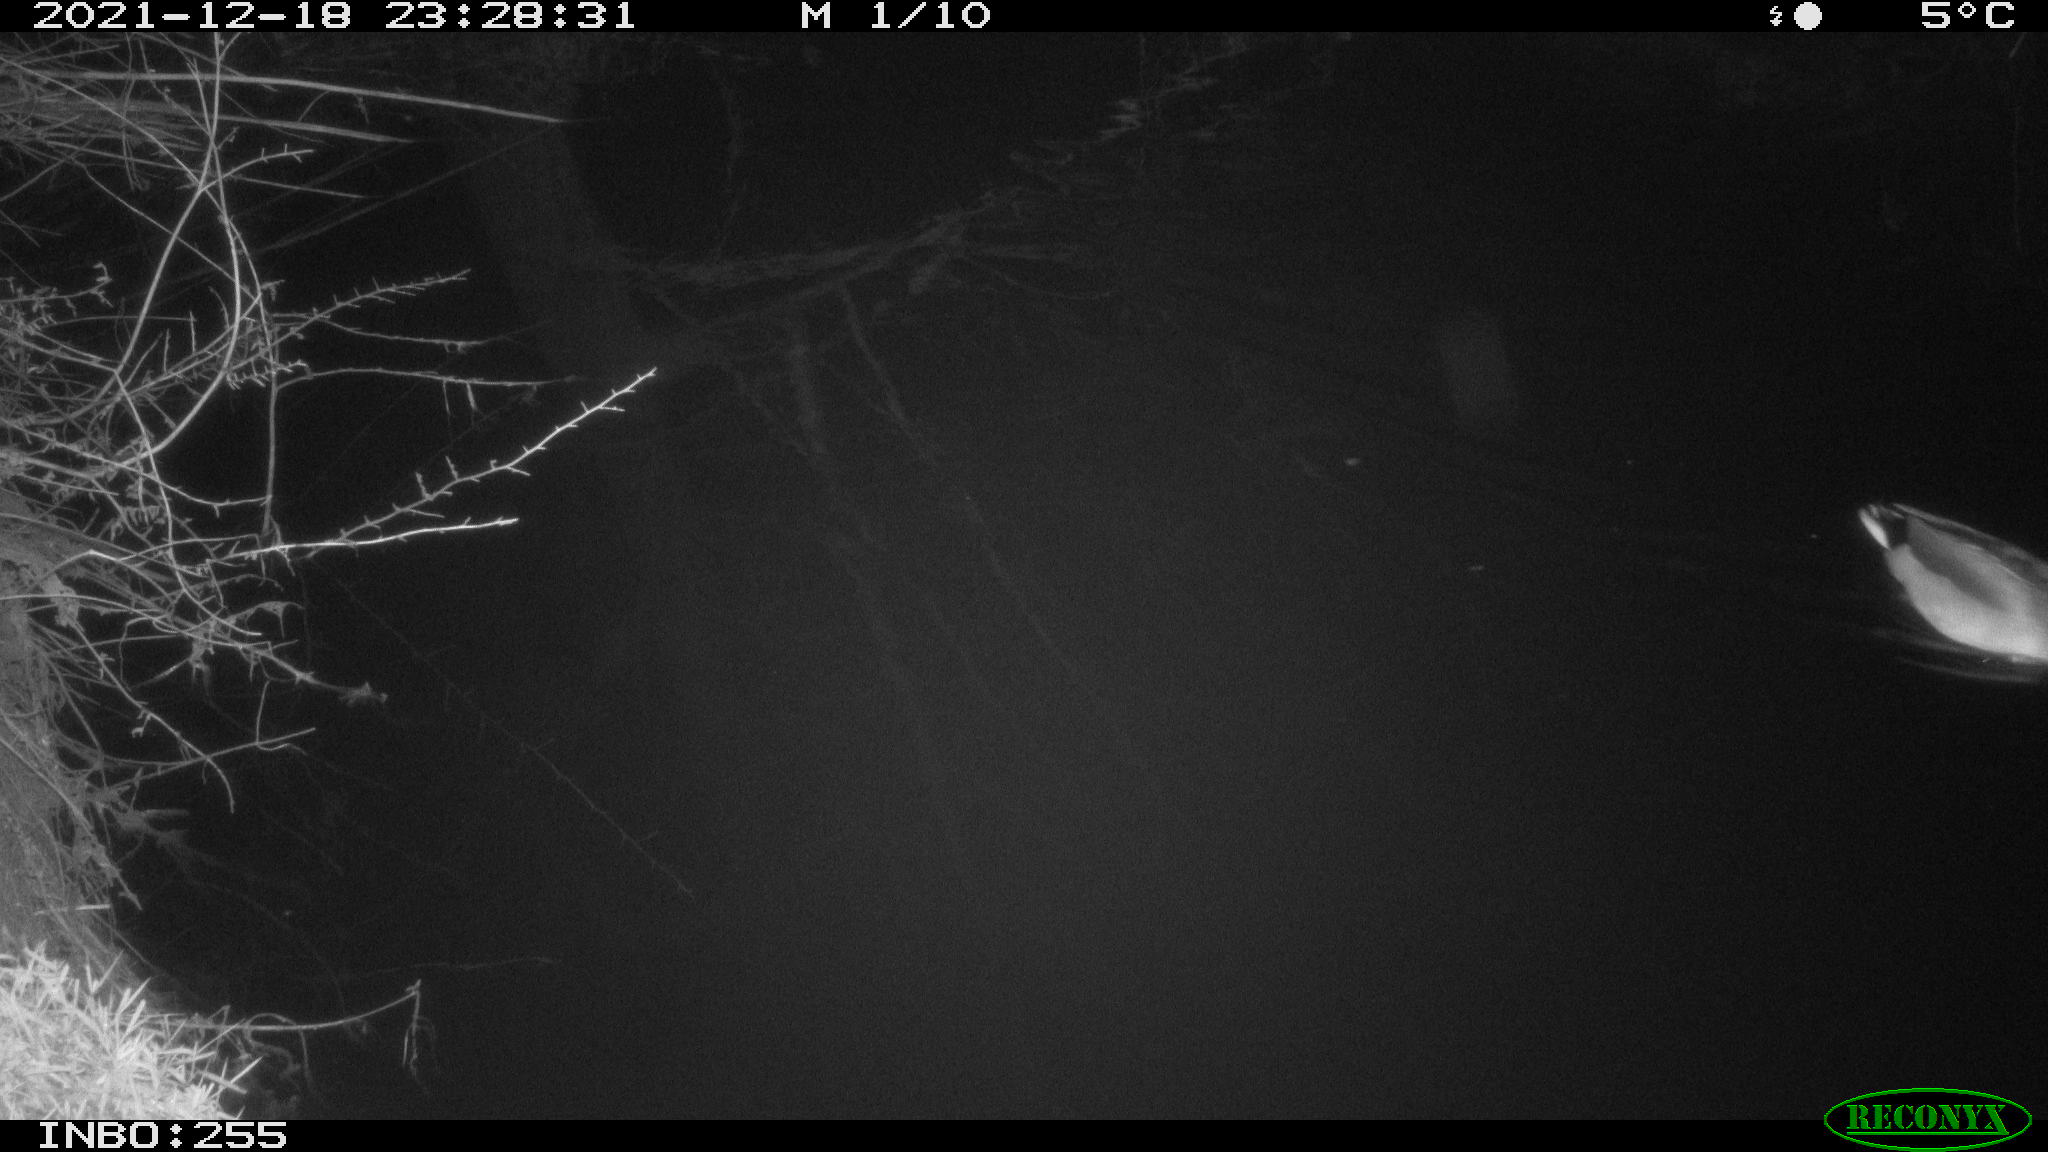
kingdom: Animalia
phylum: Chordata
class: Aves
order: Anseriformes
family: Anatidae
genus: Anas
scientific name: Anas platyrhynchos
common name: Mallard
